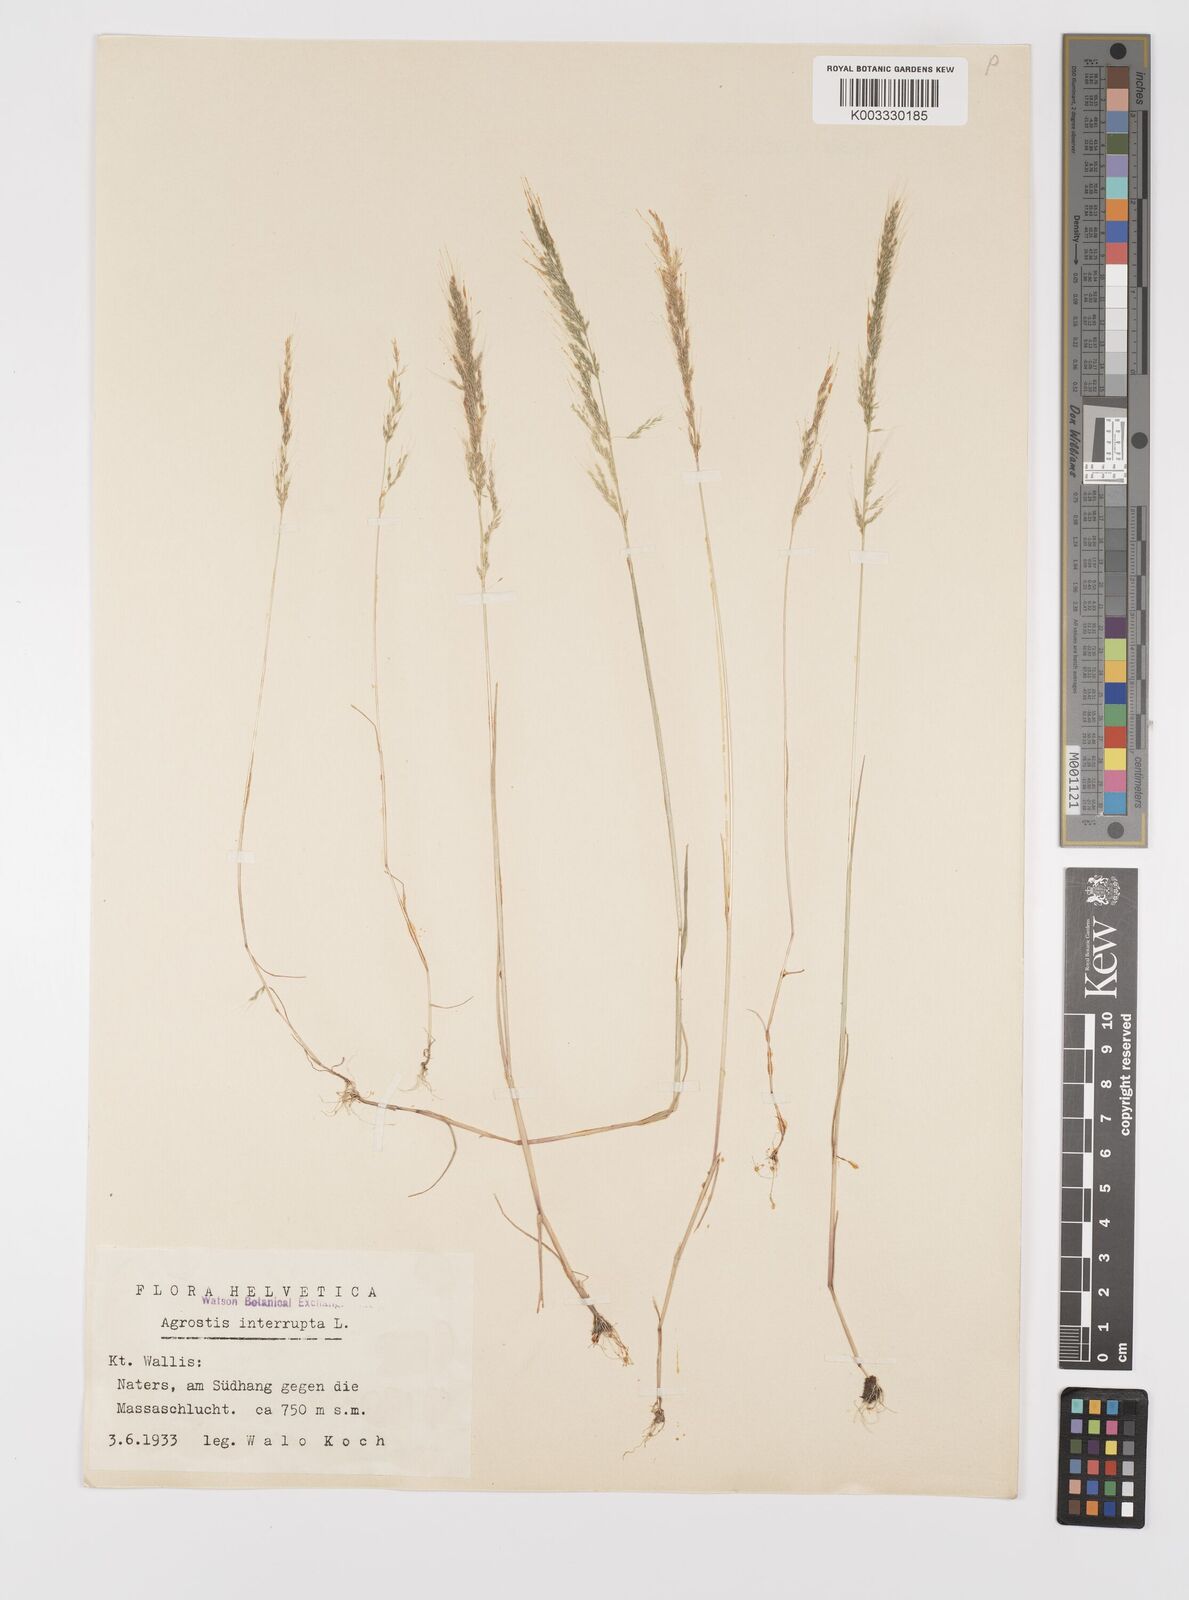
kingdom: Plantae
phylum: Tracheophyta
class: Liliopsida
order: Poales
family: Poaceae
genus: Apera
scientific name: Apera interrupta
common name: Dense silky-bent
